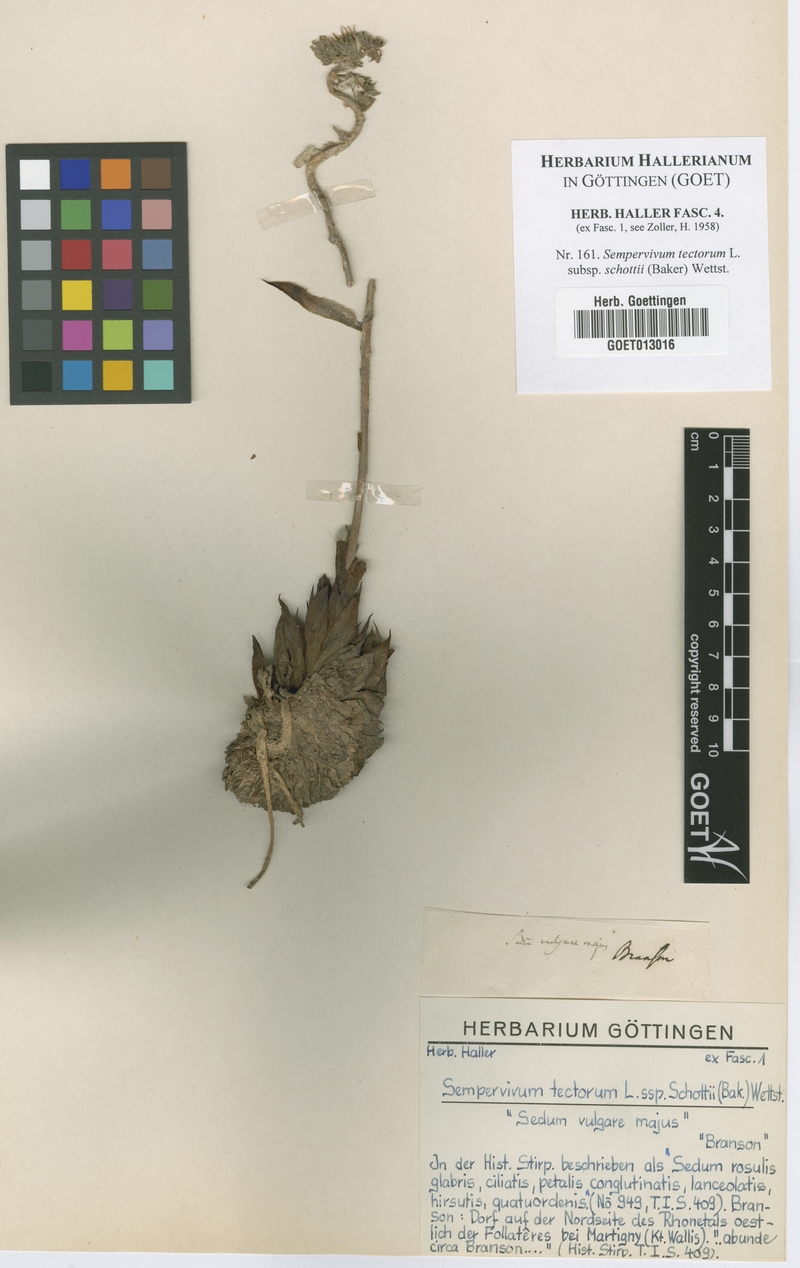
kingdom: Plantae
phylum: Tracheophyta
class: Magnoliopsida
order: Saxifragales
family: Crassulaceae
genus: Sempervivum
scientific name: Sempervivum tectorum
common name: House-leek
